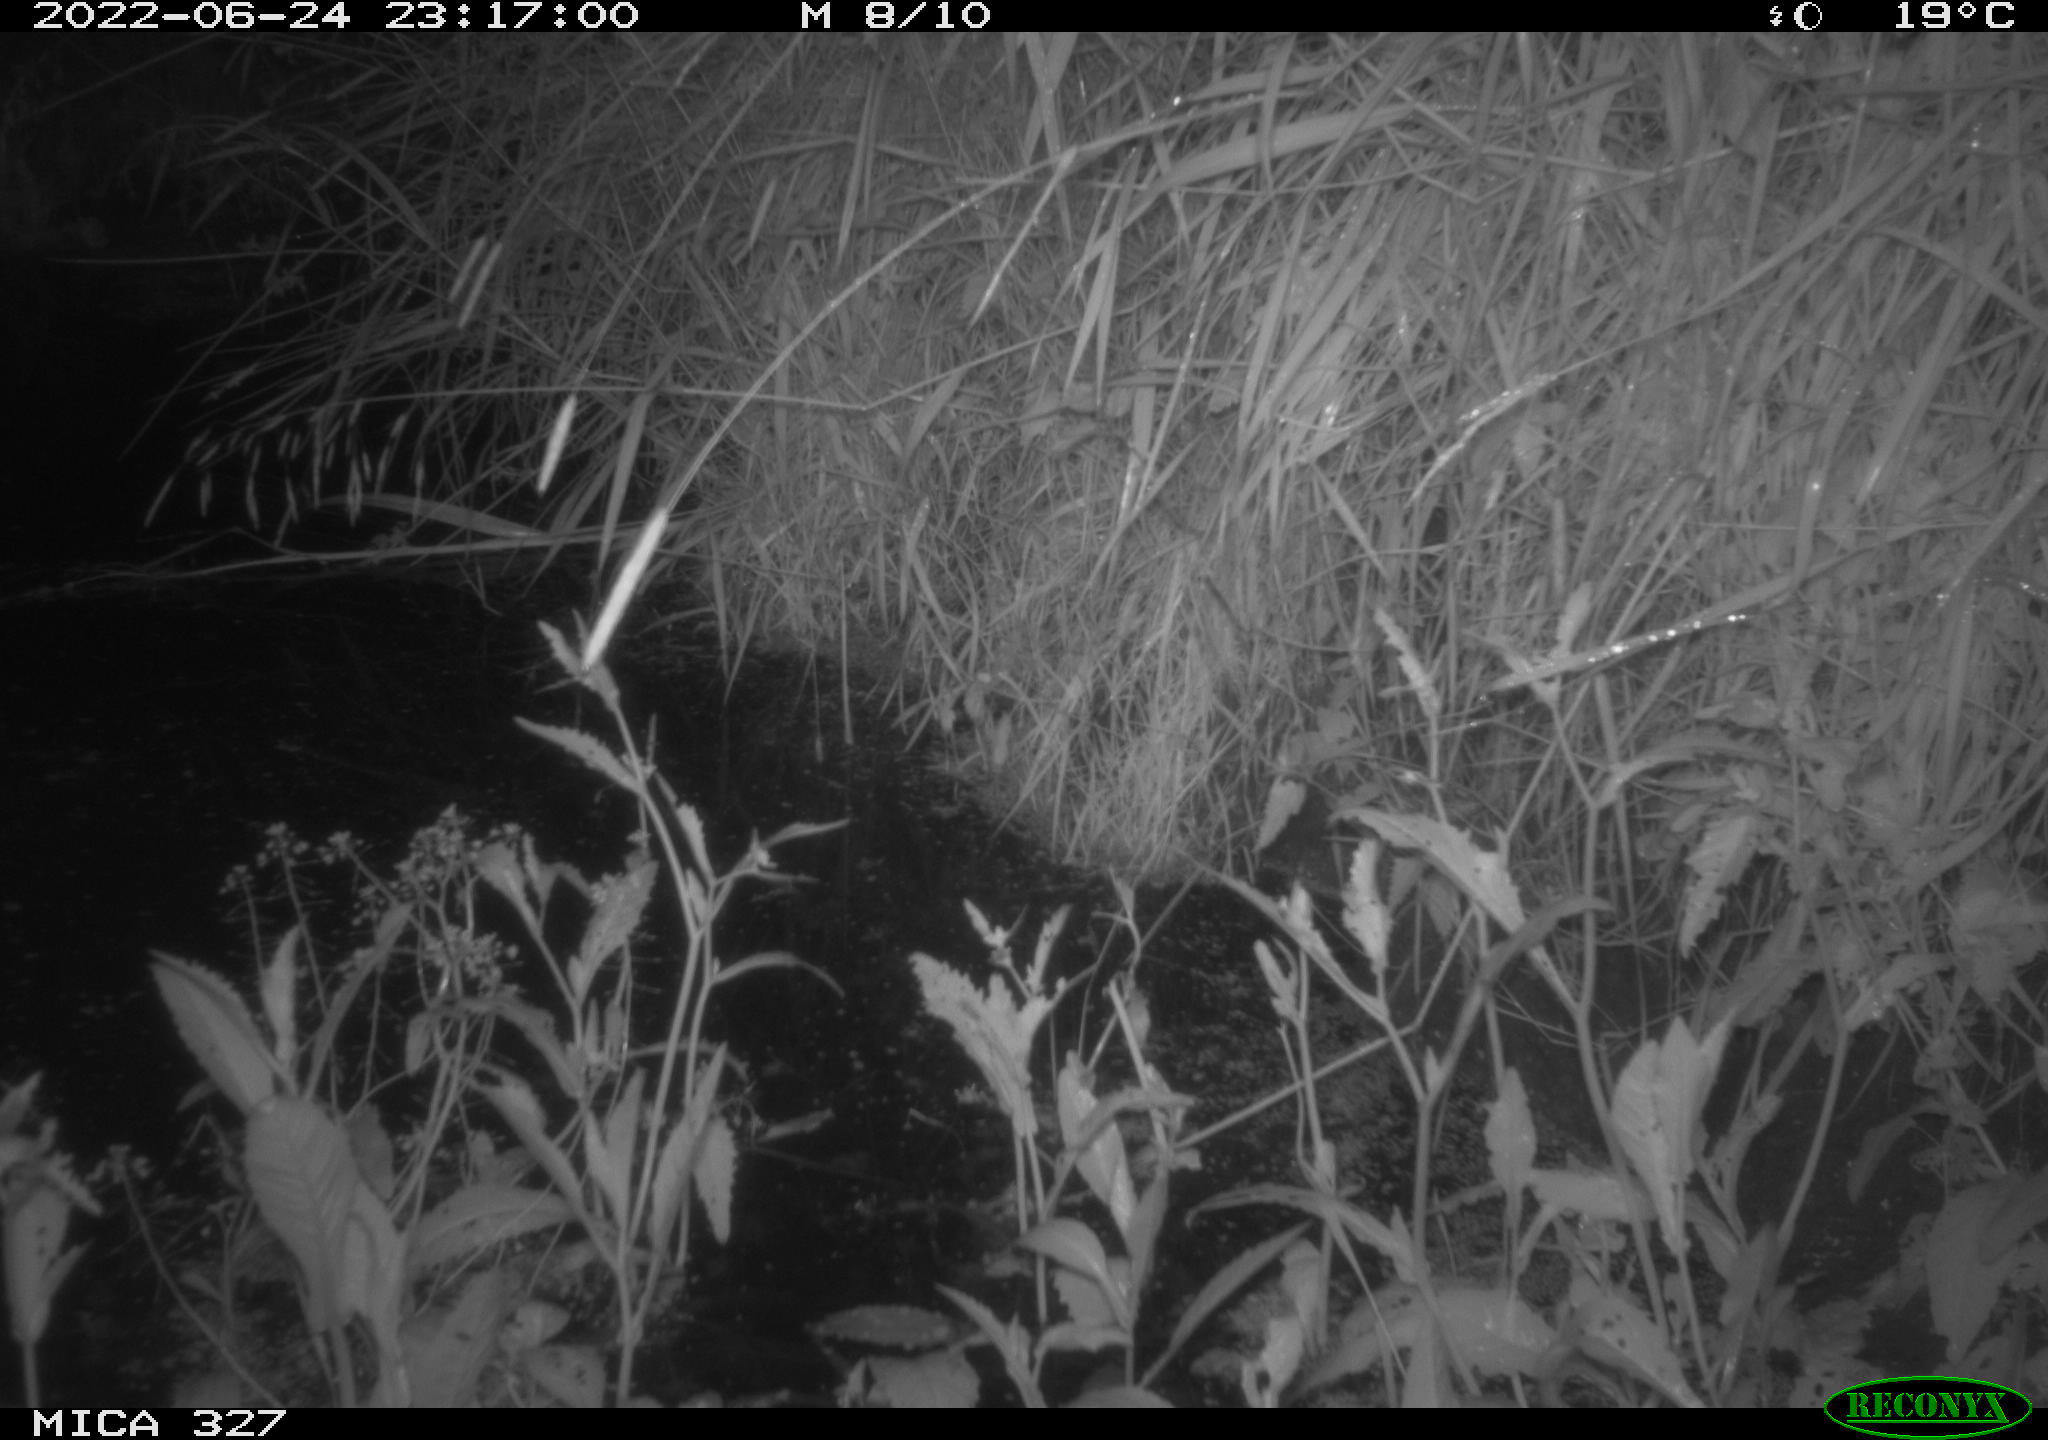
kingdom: Animalia
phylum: Chordata
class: Mammalia
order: Rodentia
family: Muridae
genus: Rattus
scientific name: Rattus norvegicus
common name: Brown rat
